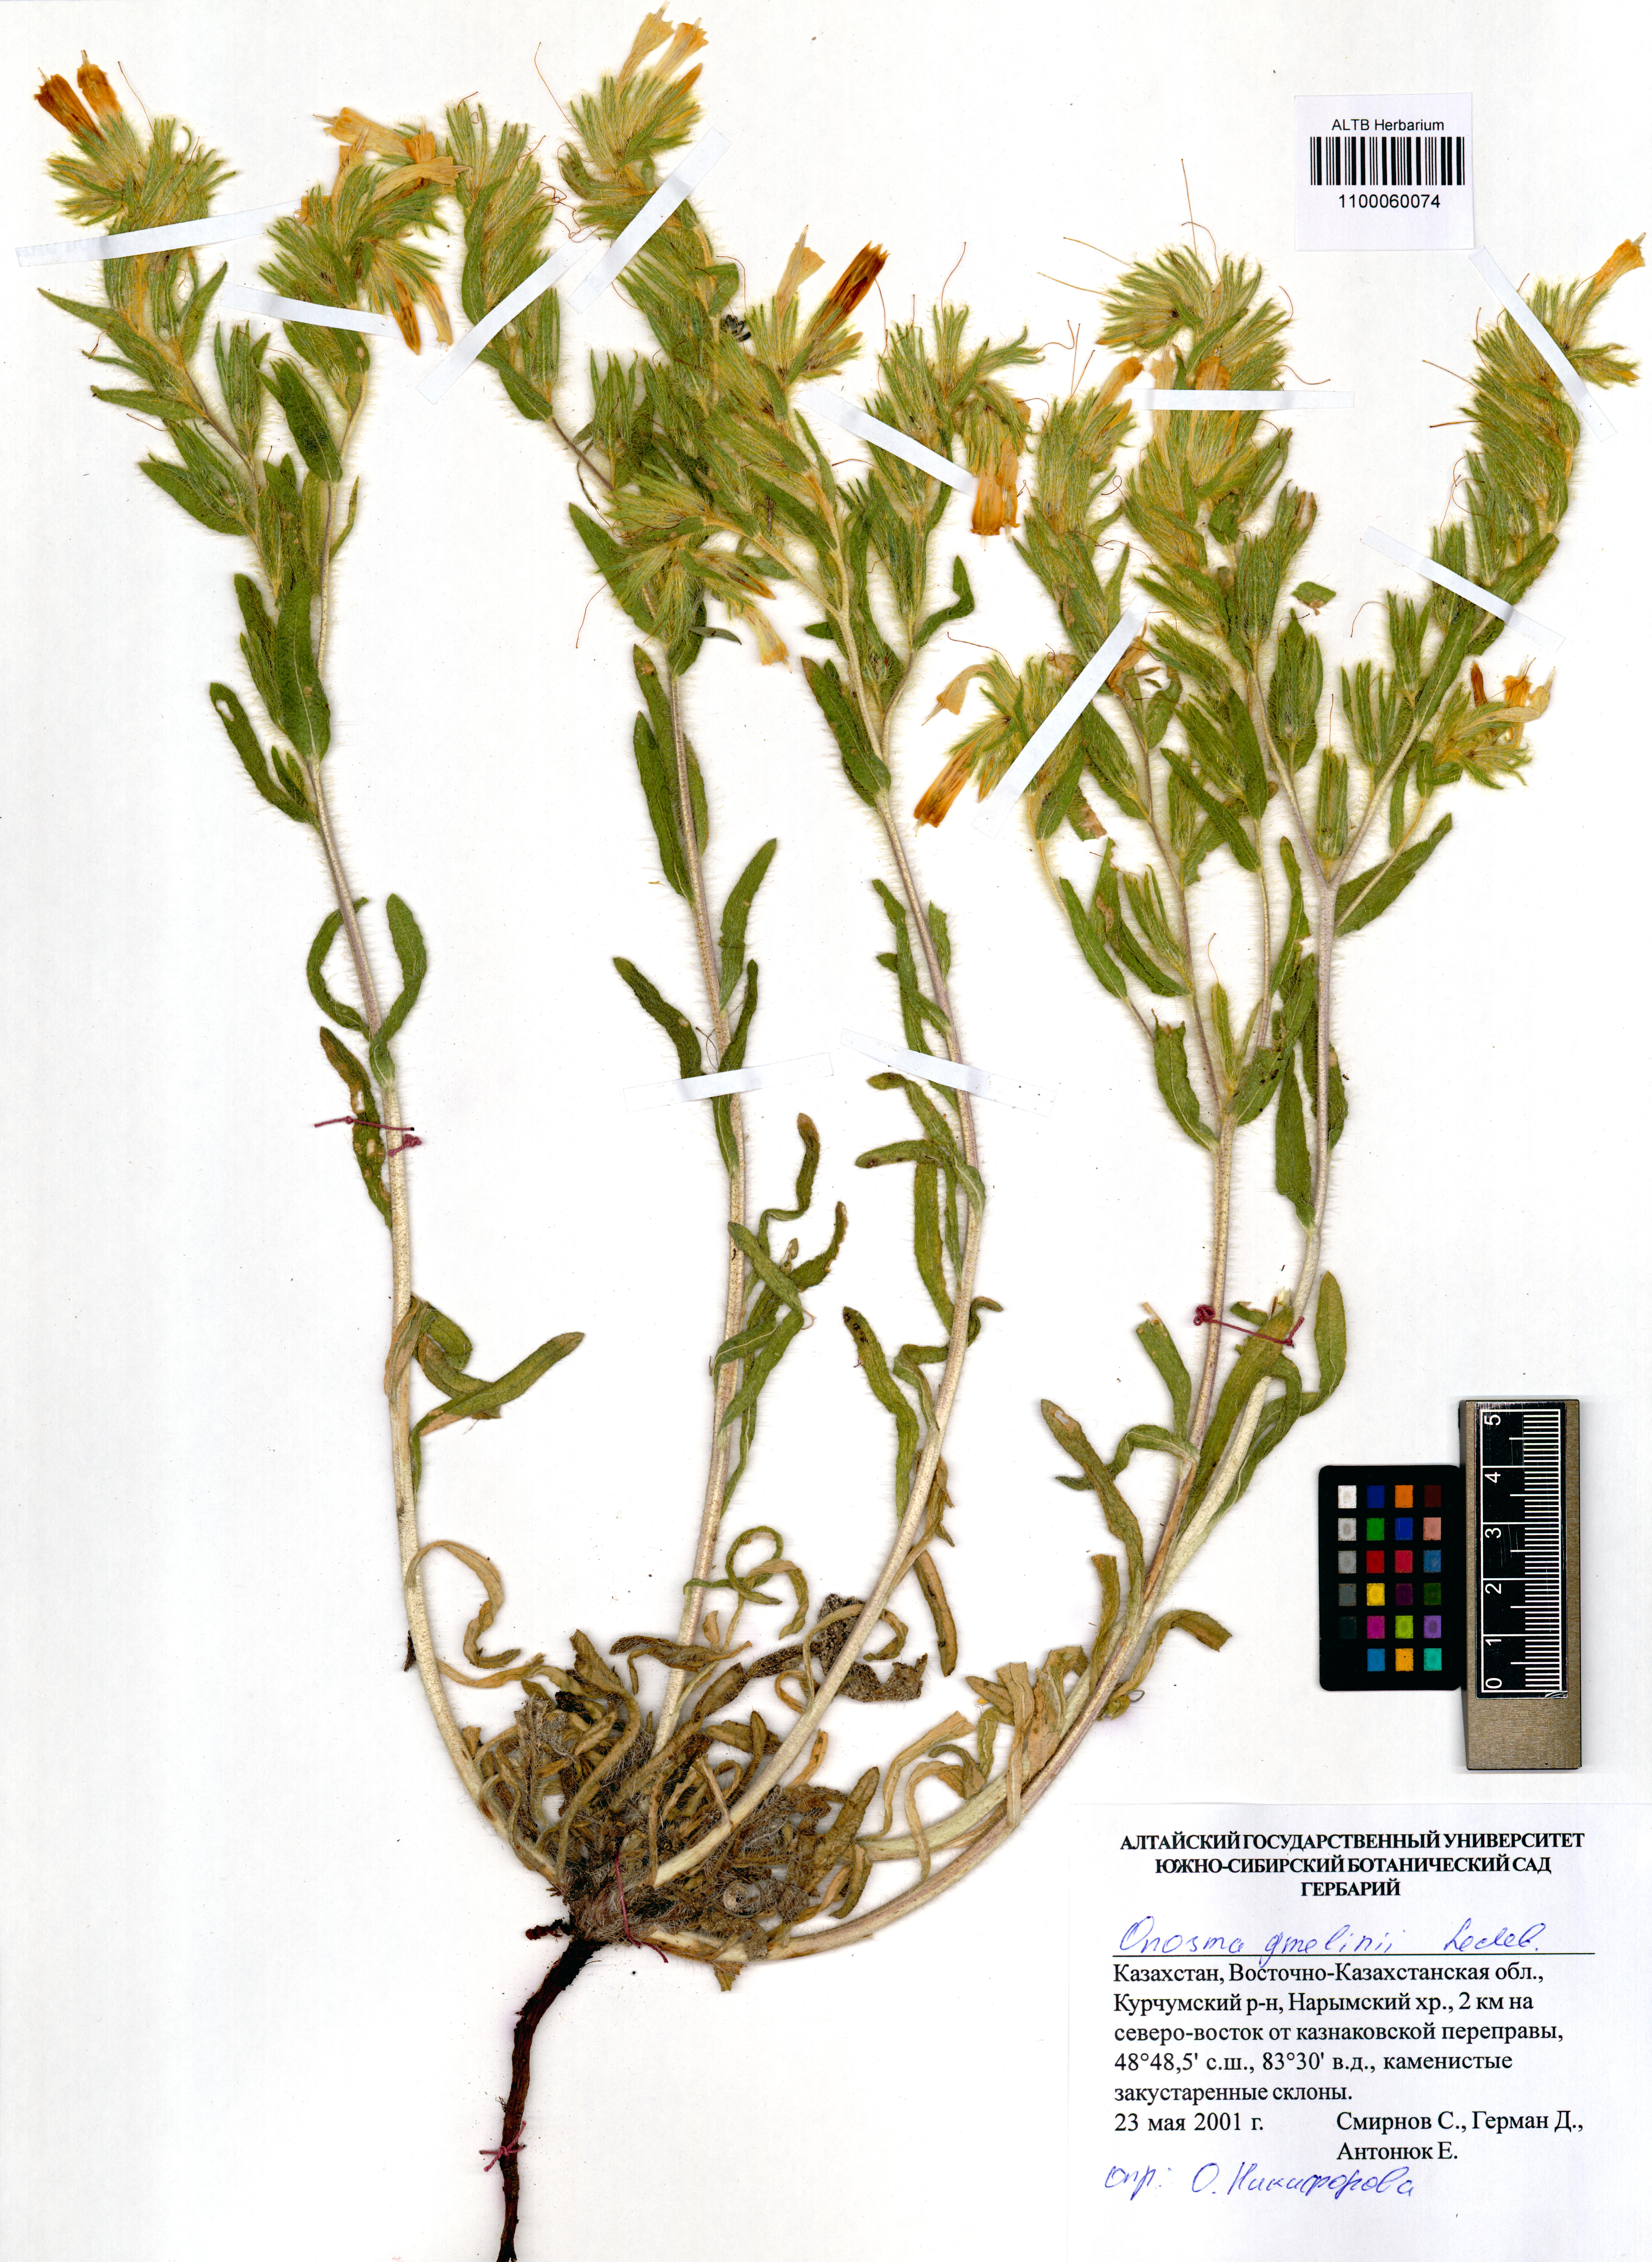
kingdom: Plantae
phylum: Tracheophyta
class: Magnoliopsida
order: Boraginales
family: Boraginaceae
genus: Onosma
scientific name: Onosma gmelinii
